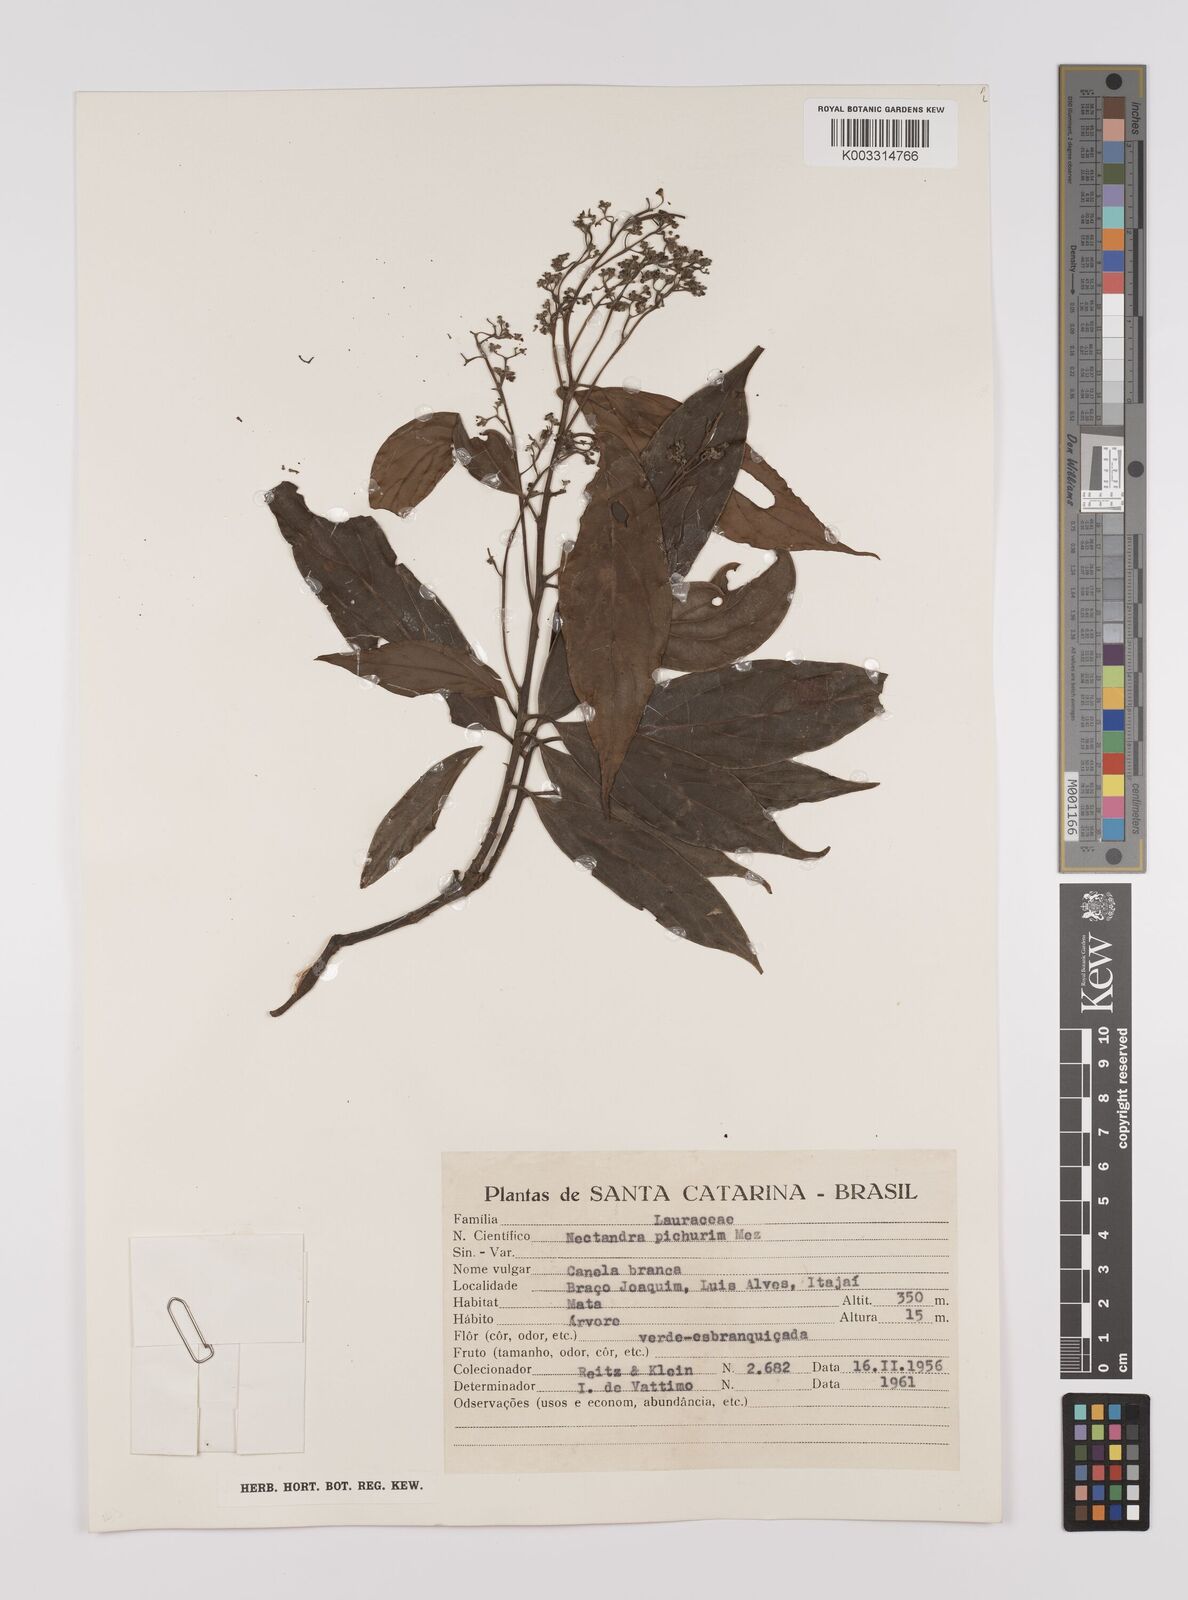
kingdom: Plantae
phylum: Tracheophyta
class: Magnoliopsida
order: Laurales
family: Lauraceae
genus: Nectandra
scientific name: Nectandra cuspidata
